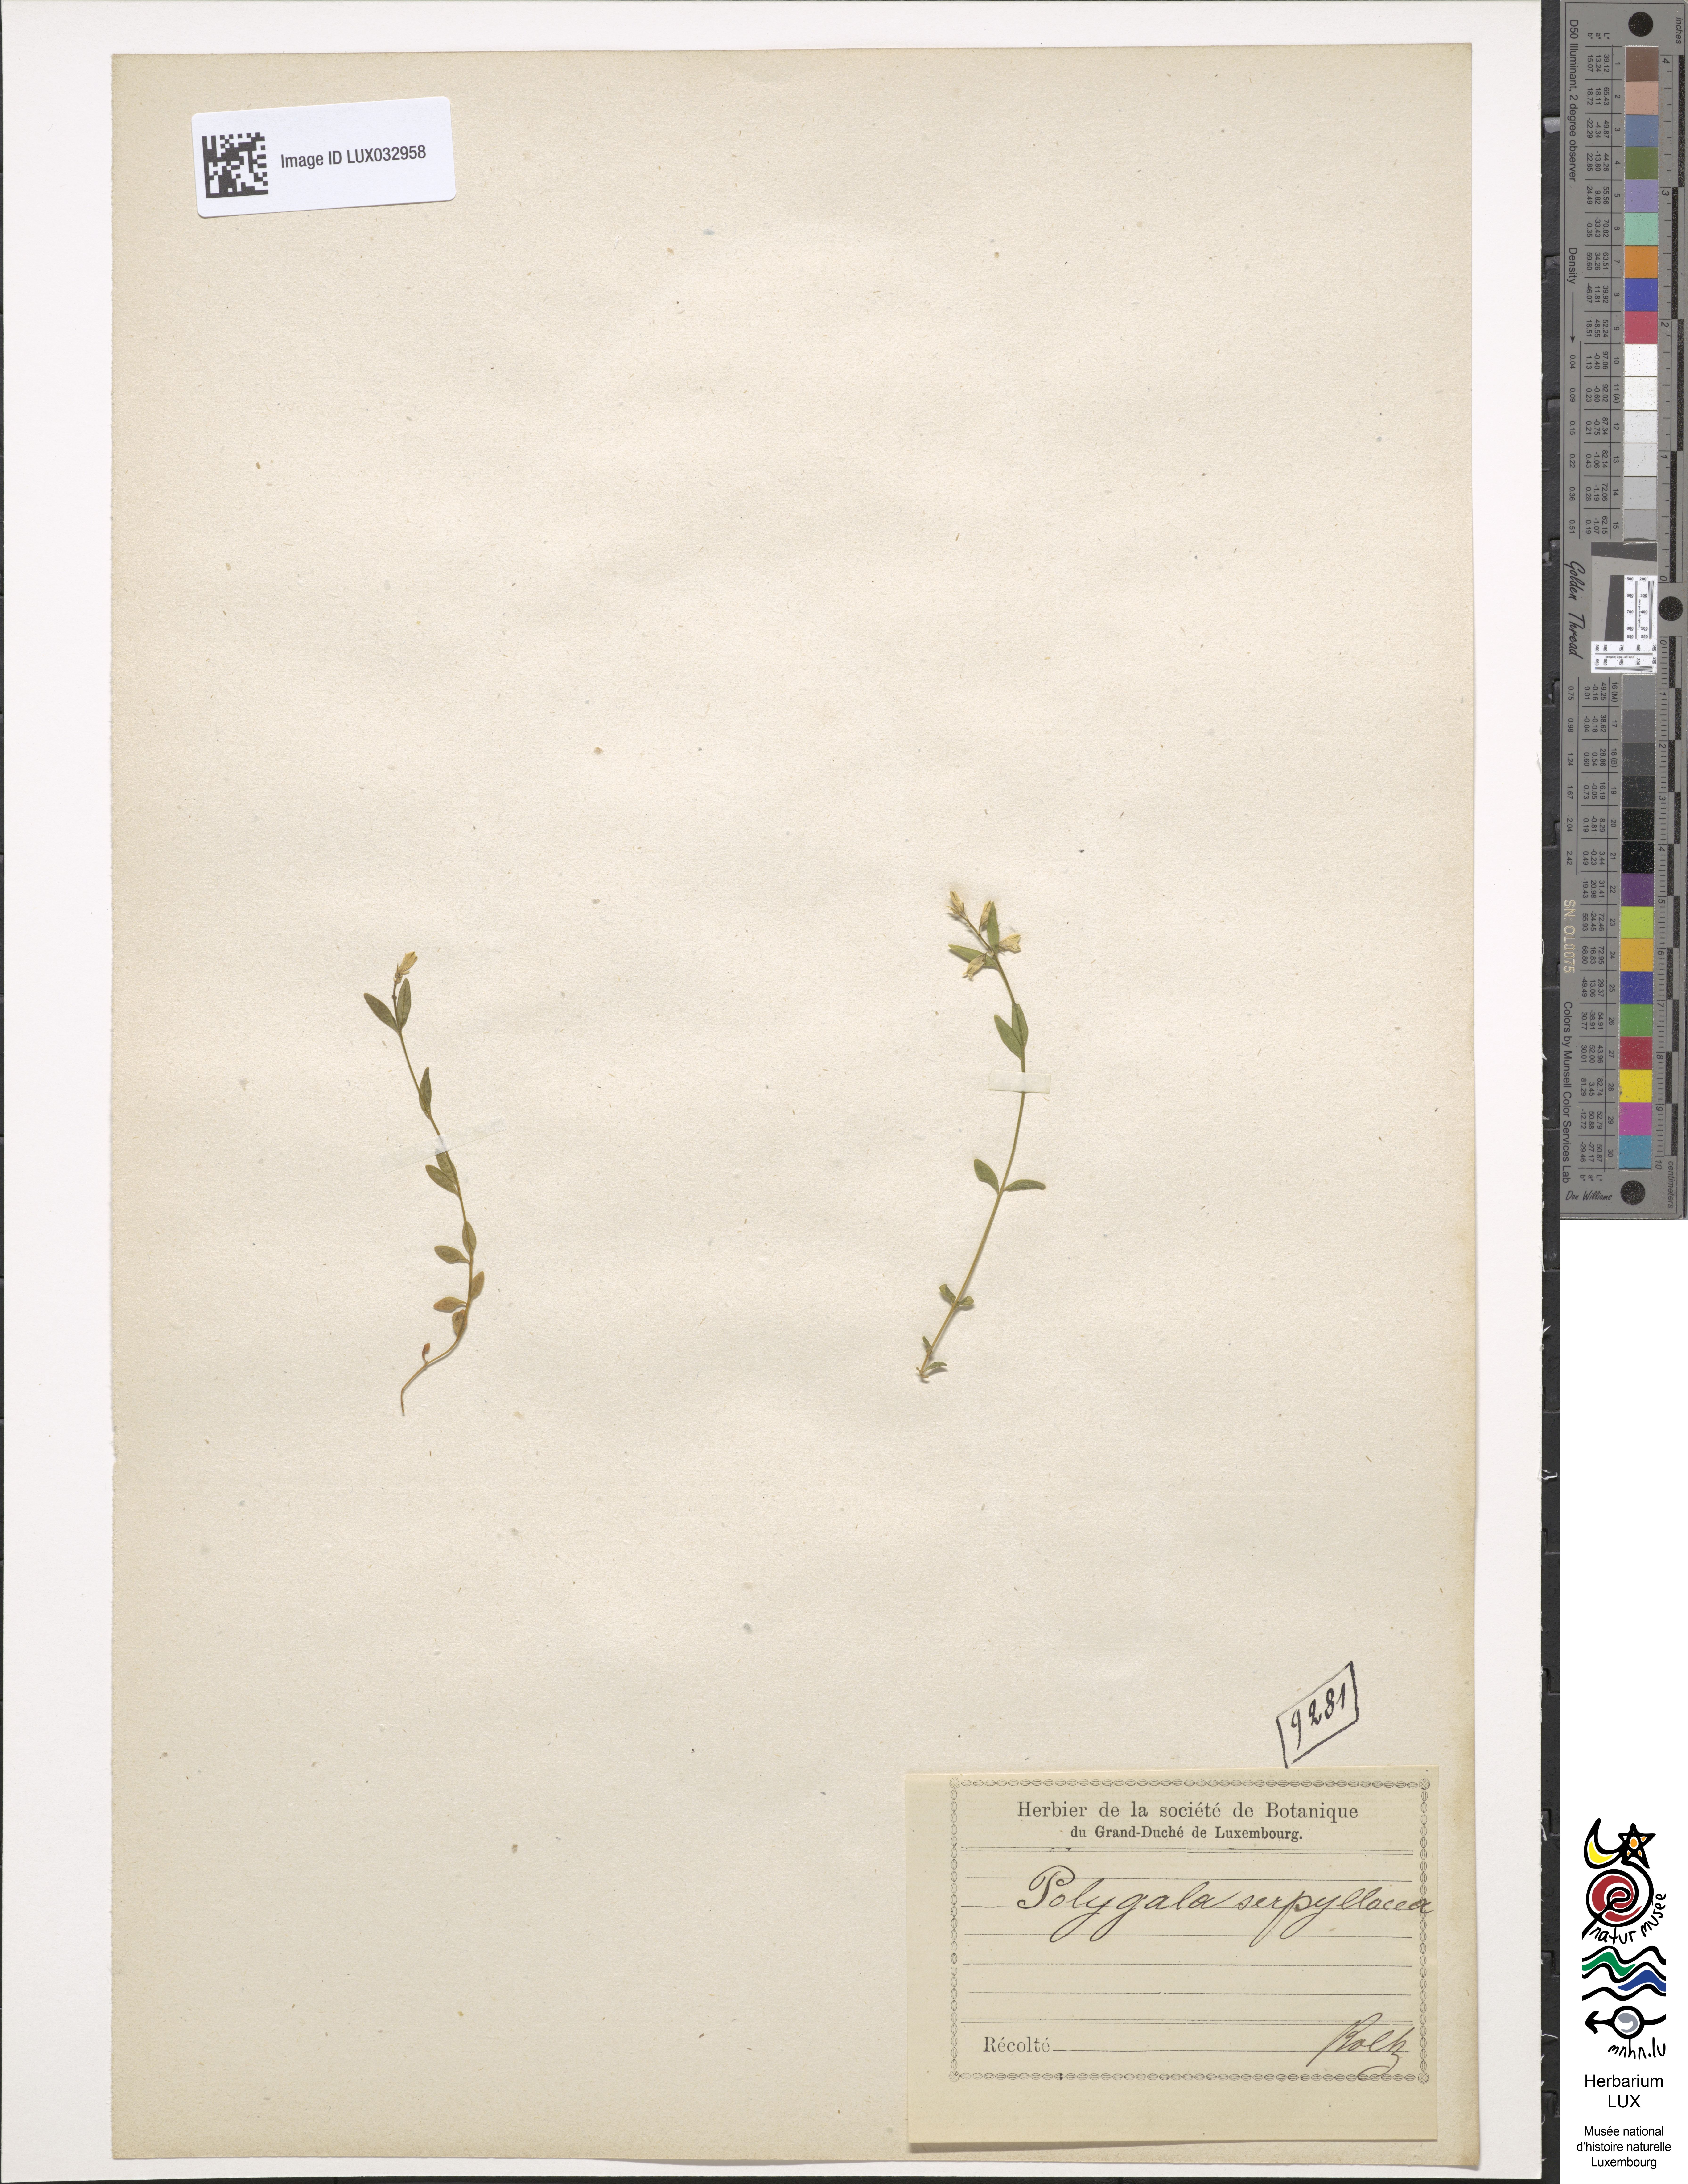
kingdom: Plantae
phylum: Tracheophyta
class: Magnoliopsida
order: Fabales
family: Polygalaceae
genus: Polygala
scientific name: Polygala serpyllifolia
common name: Heath milkwort
